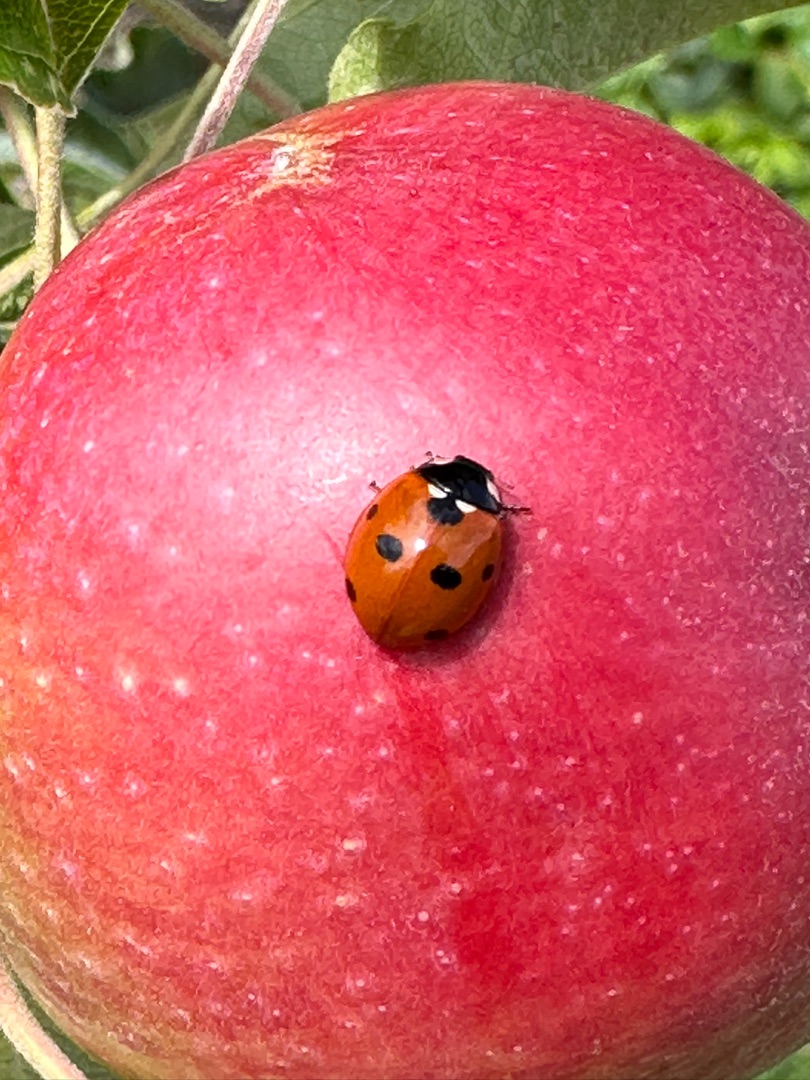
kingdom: Animalia
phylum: Arthropoda
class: Insecta
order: Coleoptera
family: Coccinellidae
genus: Coccinella
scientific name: Coccinella septempunctata
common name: Syvplettet mariehøne
